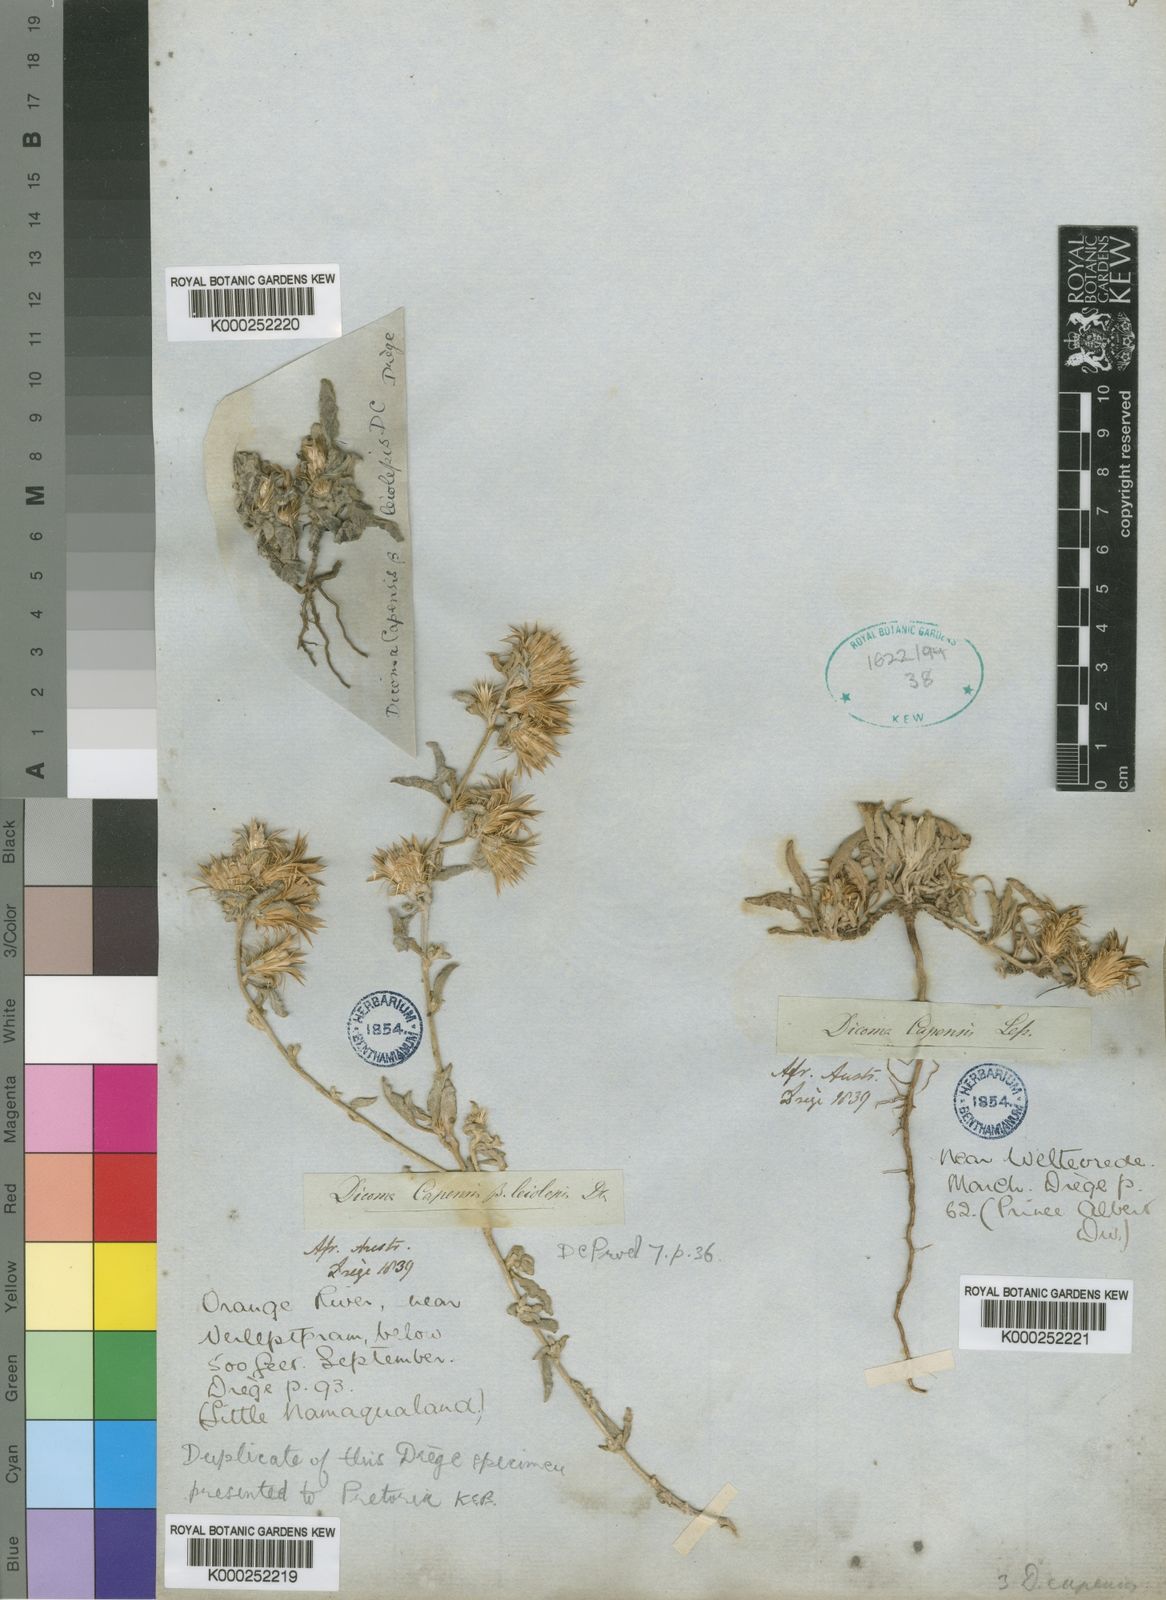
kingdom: Plantae
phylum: Tracheophyta
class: Magnoliopsida
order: Asterales
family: Asteraceae
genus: Dicoma
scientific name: Dicoma capensis
